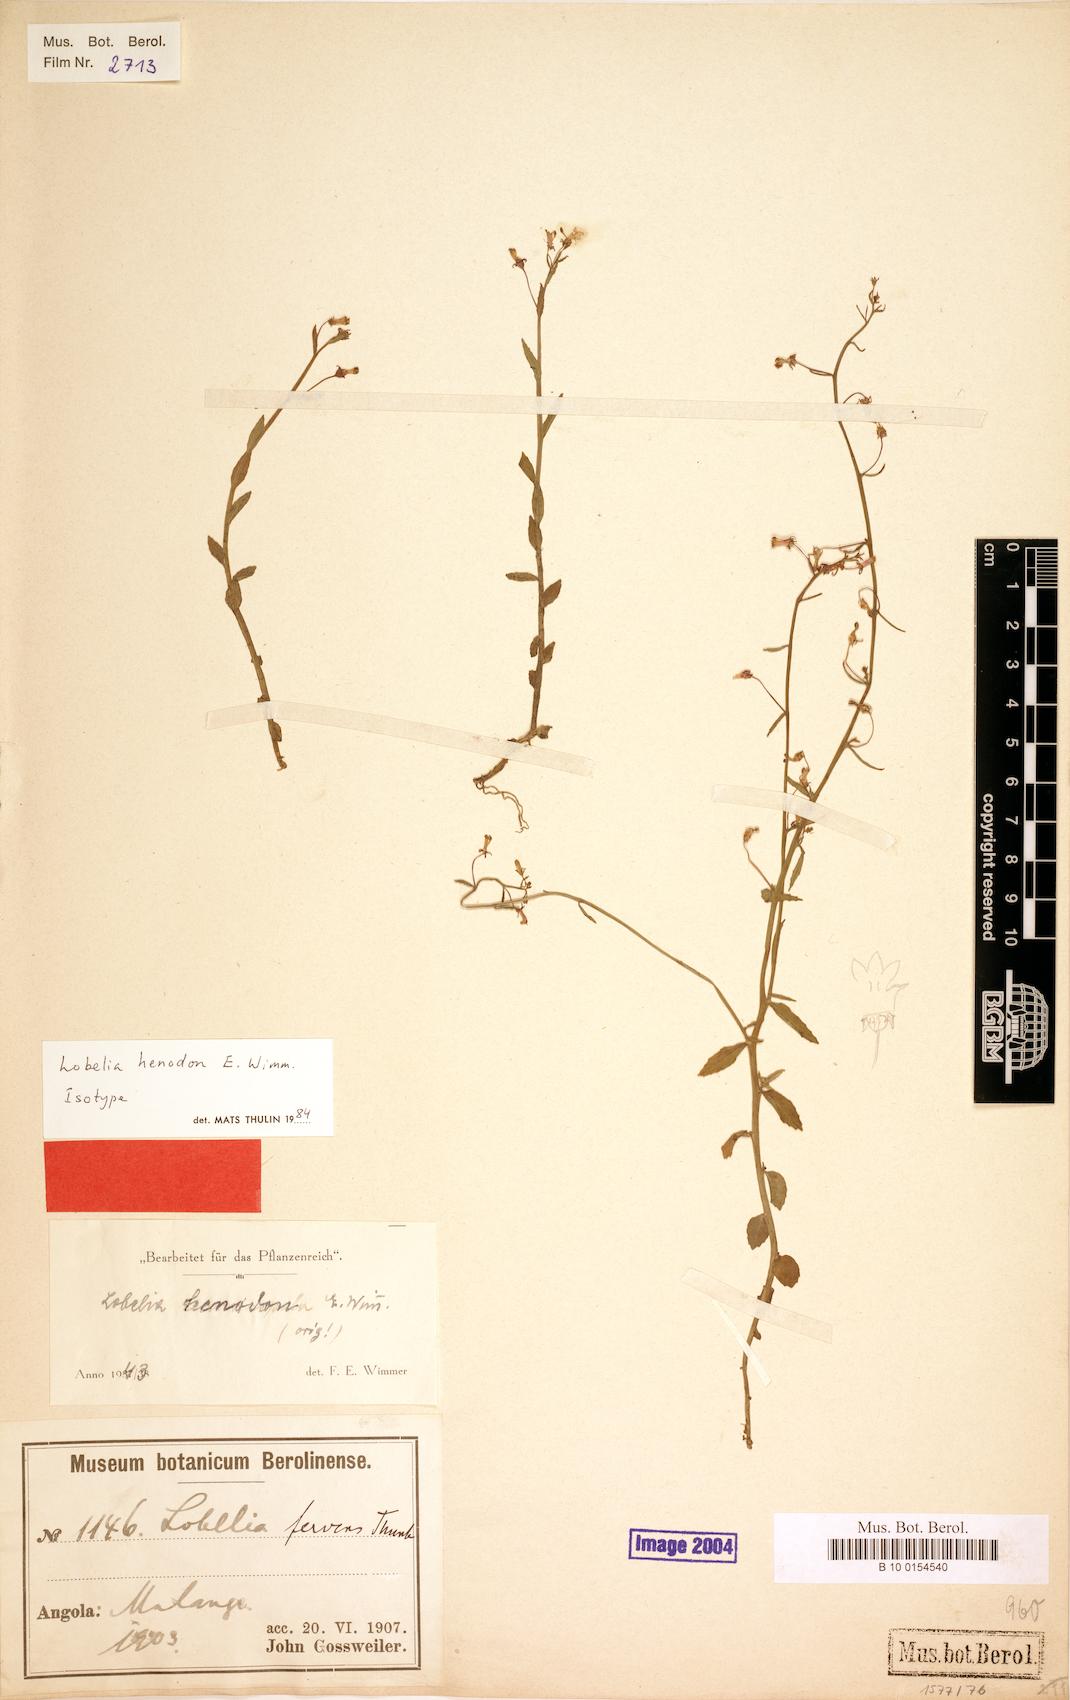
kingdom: Plantae
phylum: Tracheophyta
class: Magnoliopsida
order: Asterales
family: Campanulaceae
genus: Lobelia
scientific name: Lobelia henodon
